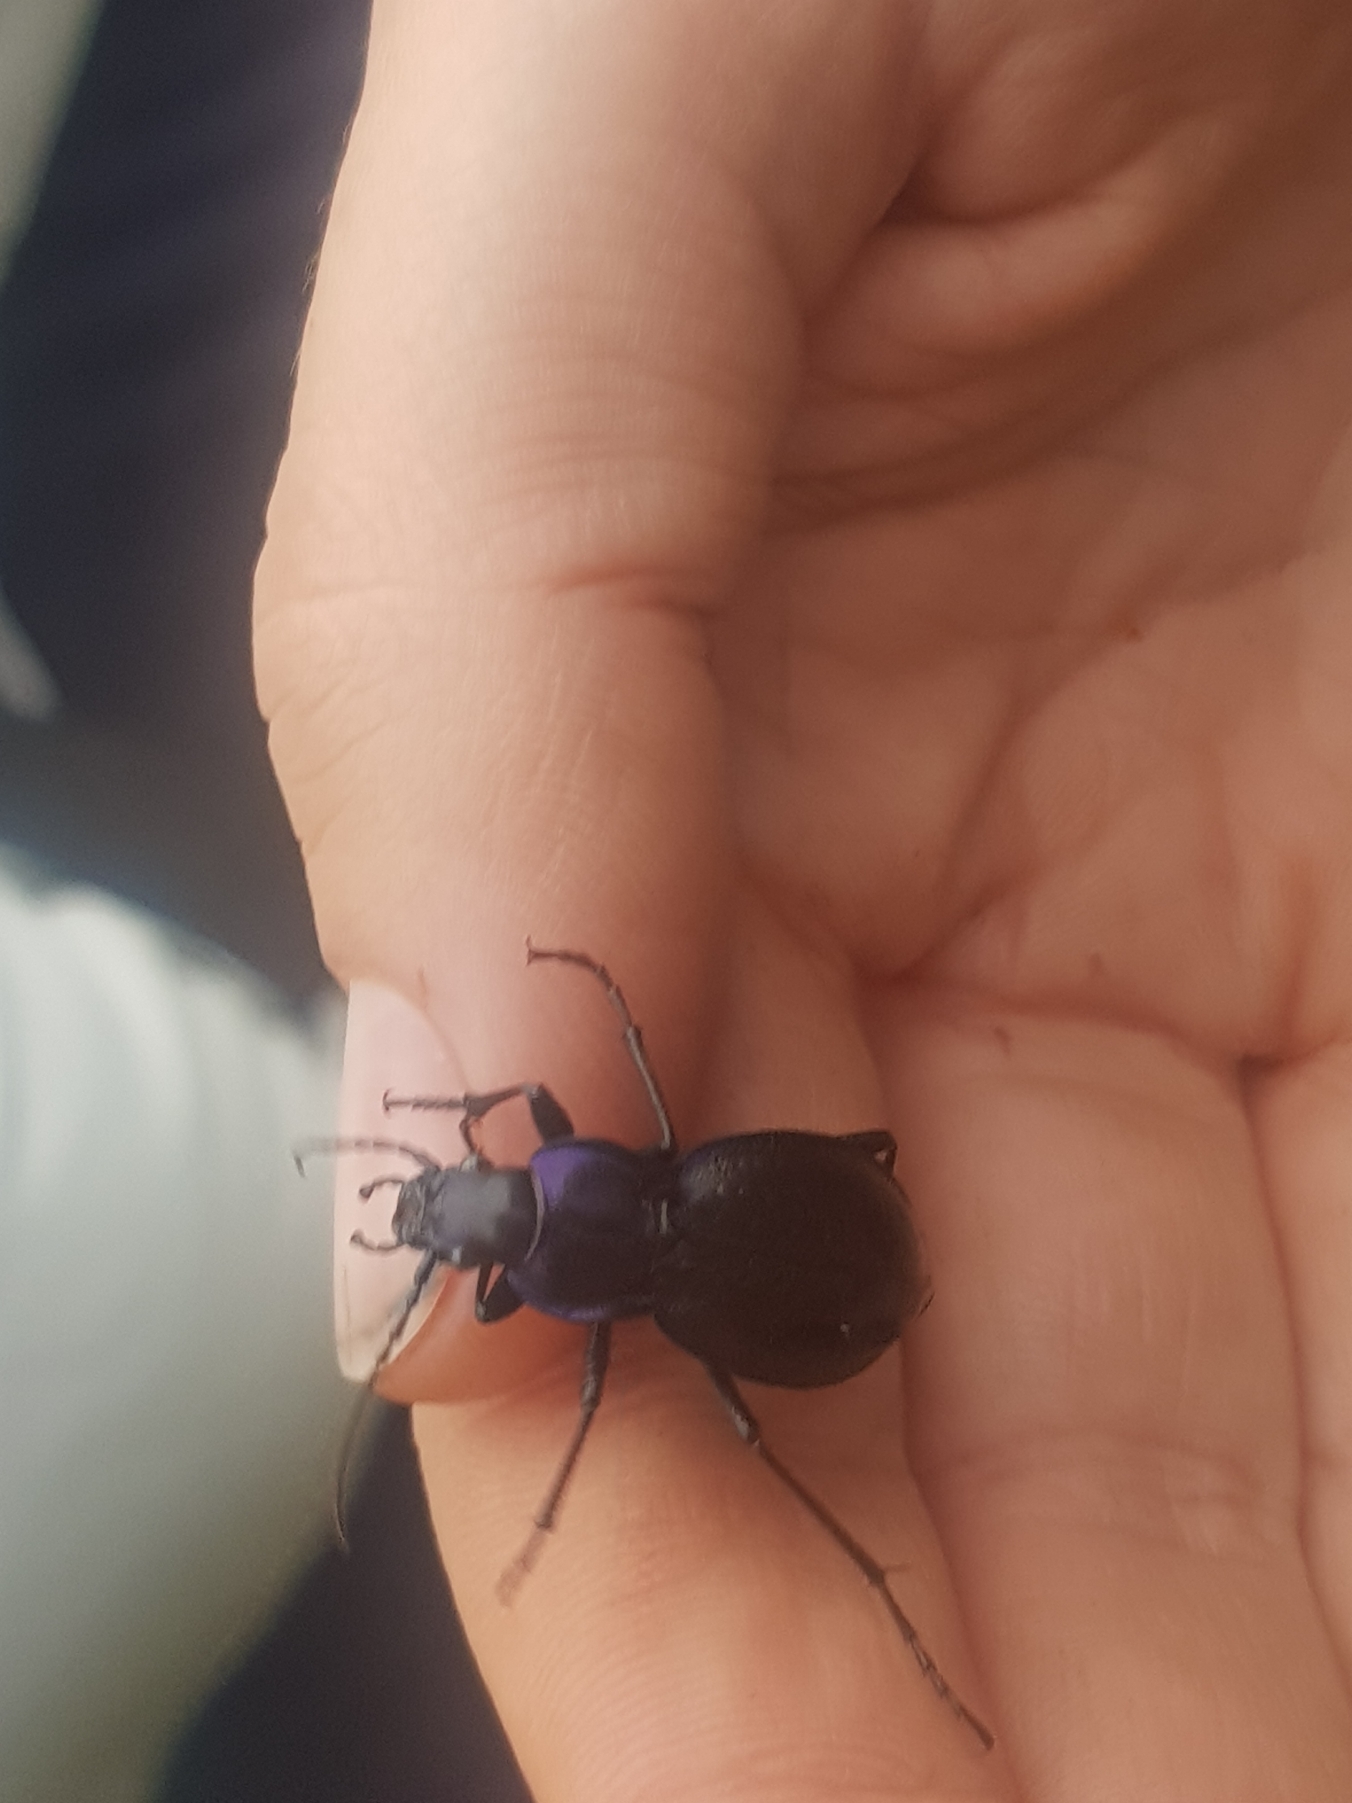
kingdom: Animalia
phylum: Arthropoda
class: Insecta
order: Coleoptera
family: Carabidae
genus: Carabus
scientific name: Carabus problematicus
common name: Jysk løber
